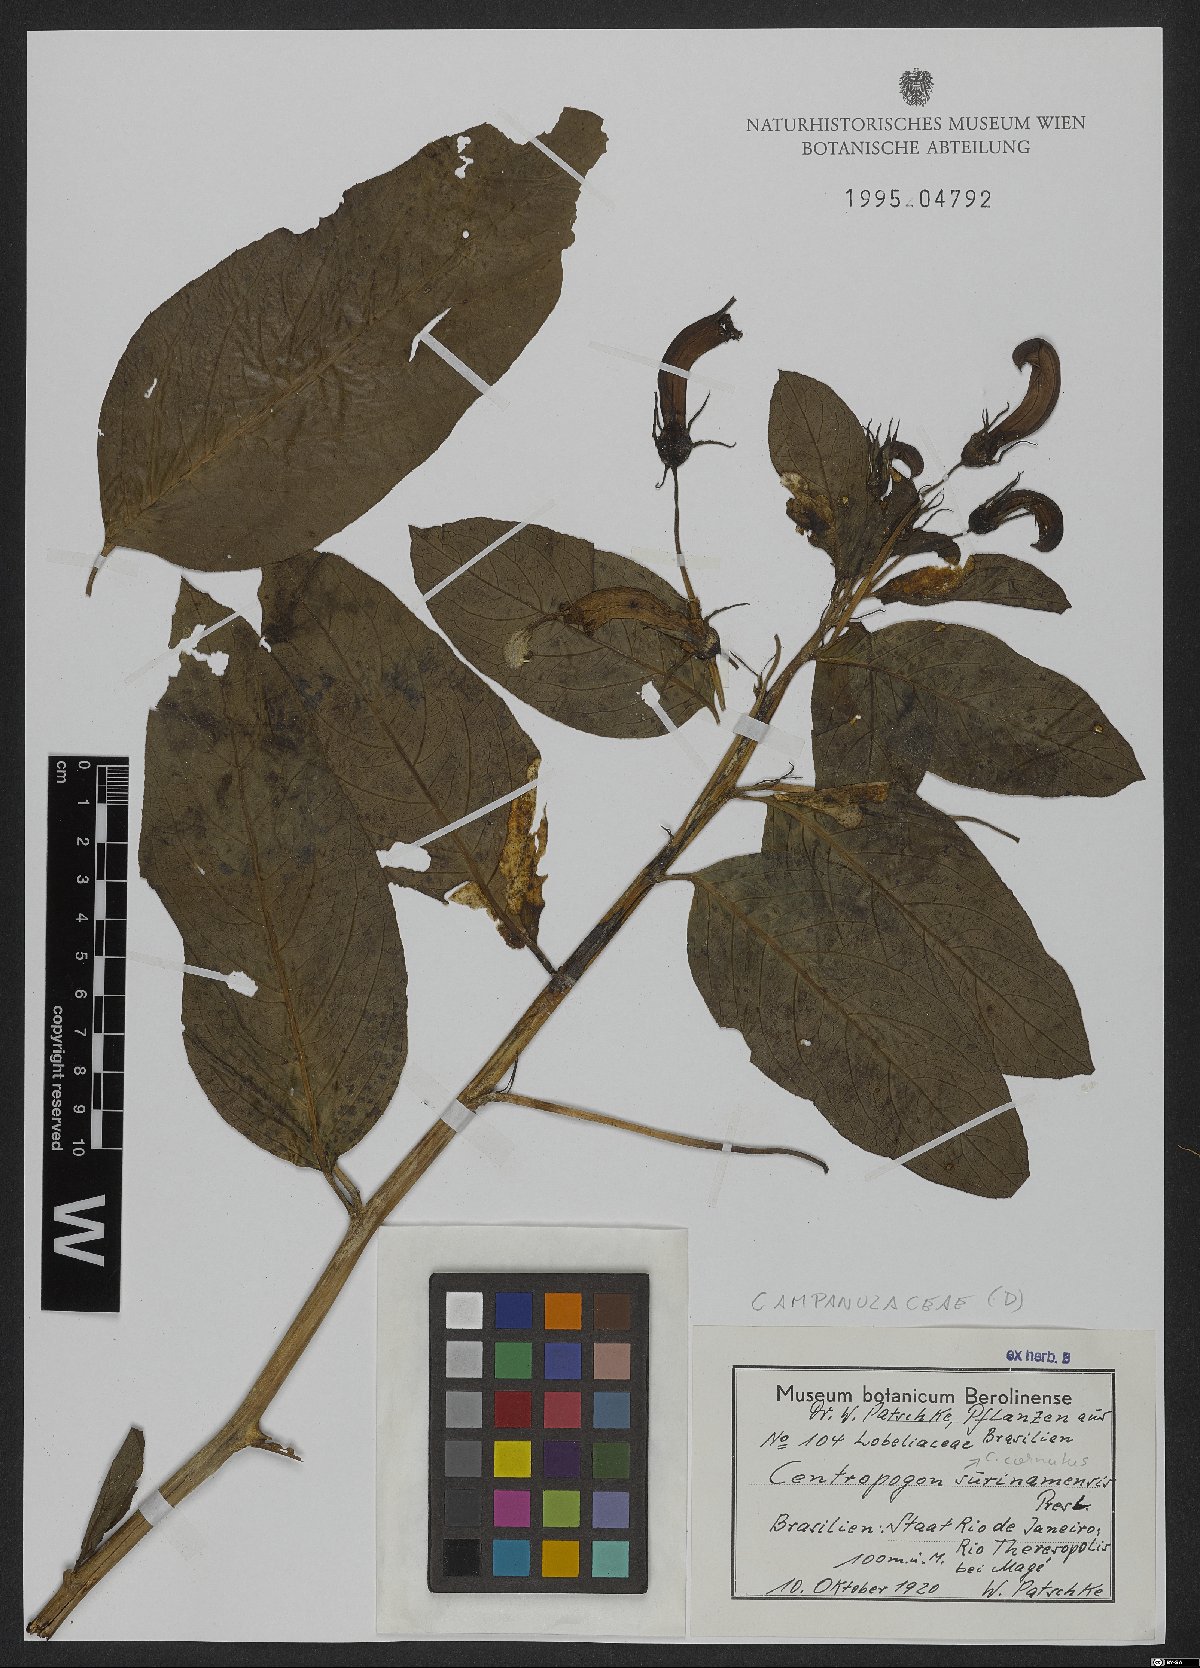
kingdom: Plantae
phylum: Tracheophyta
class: Magnoliopsida
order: Asterales
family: Campanulaceae
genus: Centropogon
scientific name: Centropogon cornutus
